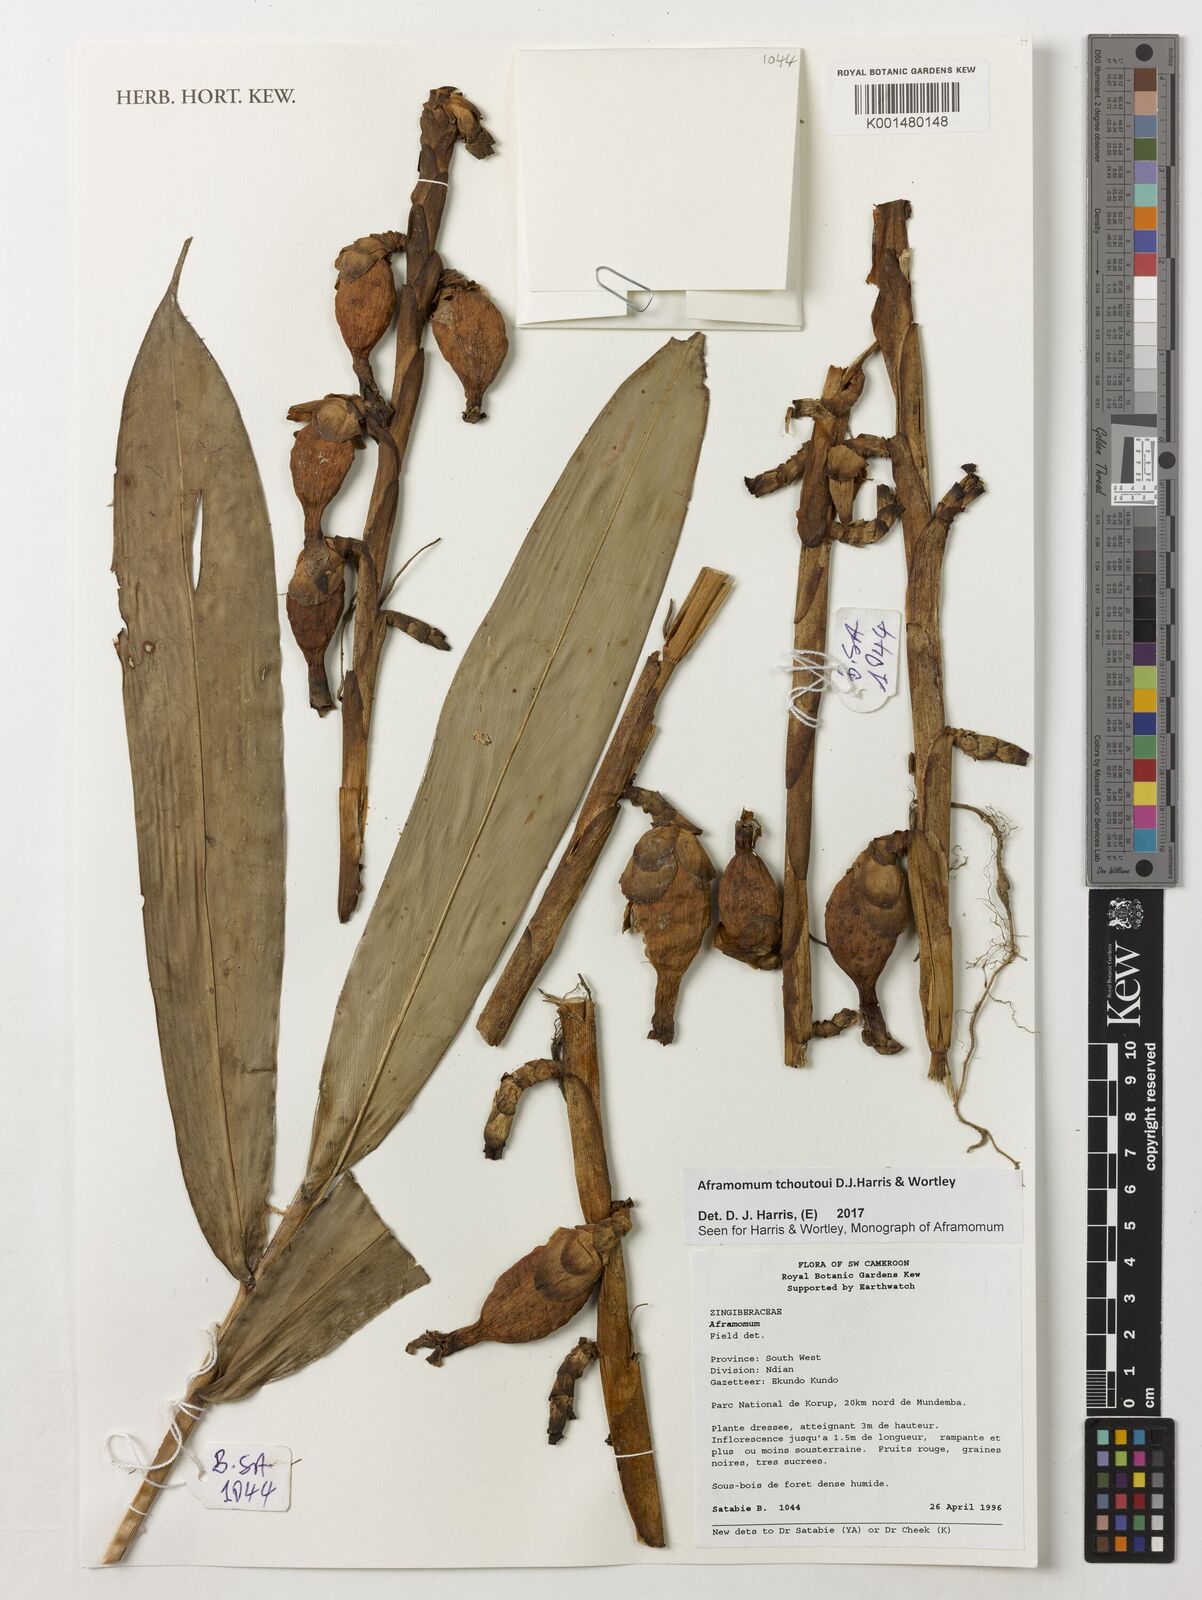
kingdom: Plantae
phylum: Tracheophyta
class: Liliopsida
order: Zingiberales
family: Zingiberaceae
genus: Aframomum
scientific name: Aframomum tchoutoui
